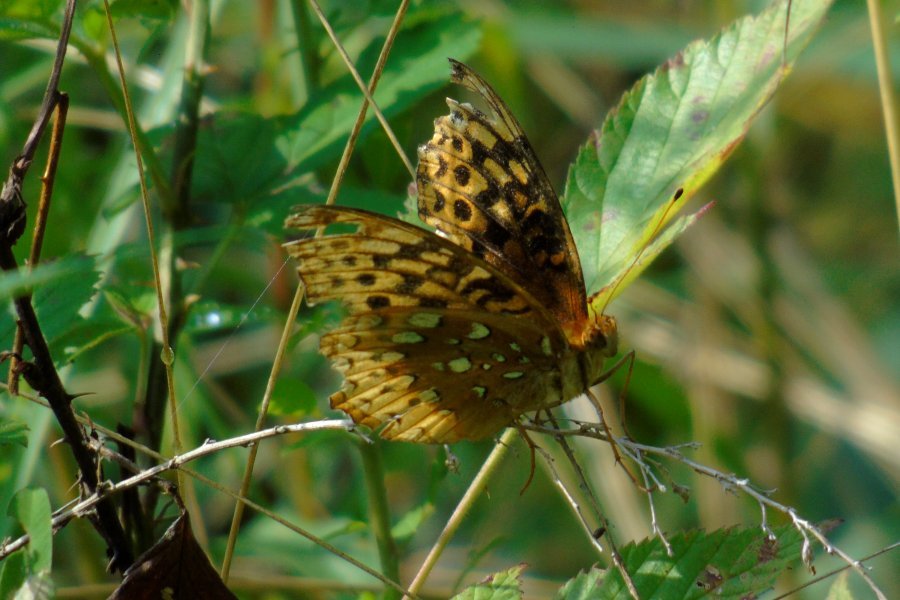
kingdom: Animalia
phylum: Arthropoda
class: Insecta
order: Lepidoptera
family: Nymphalidae
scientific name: Nymphalidae
